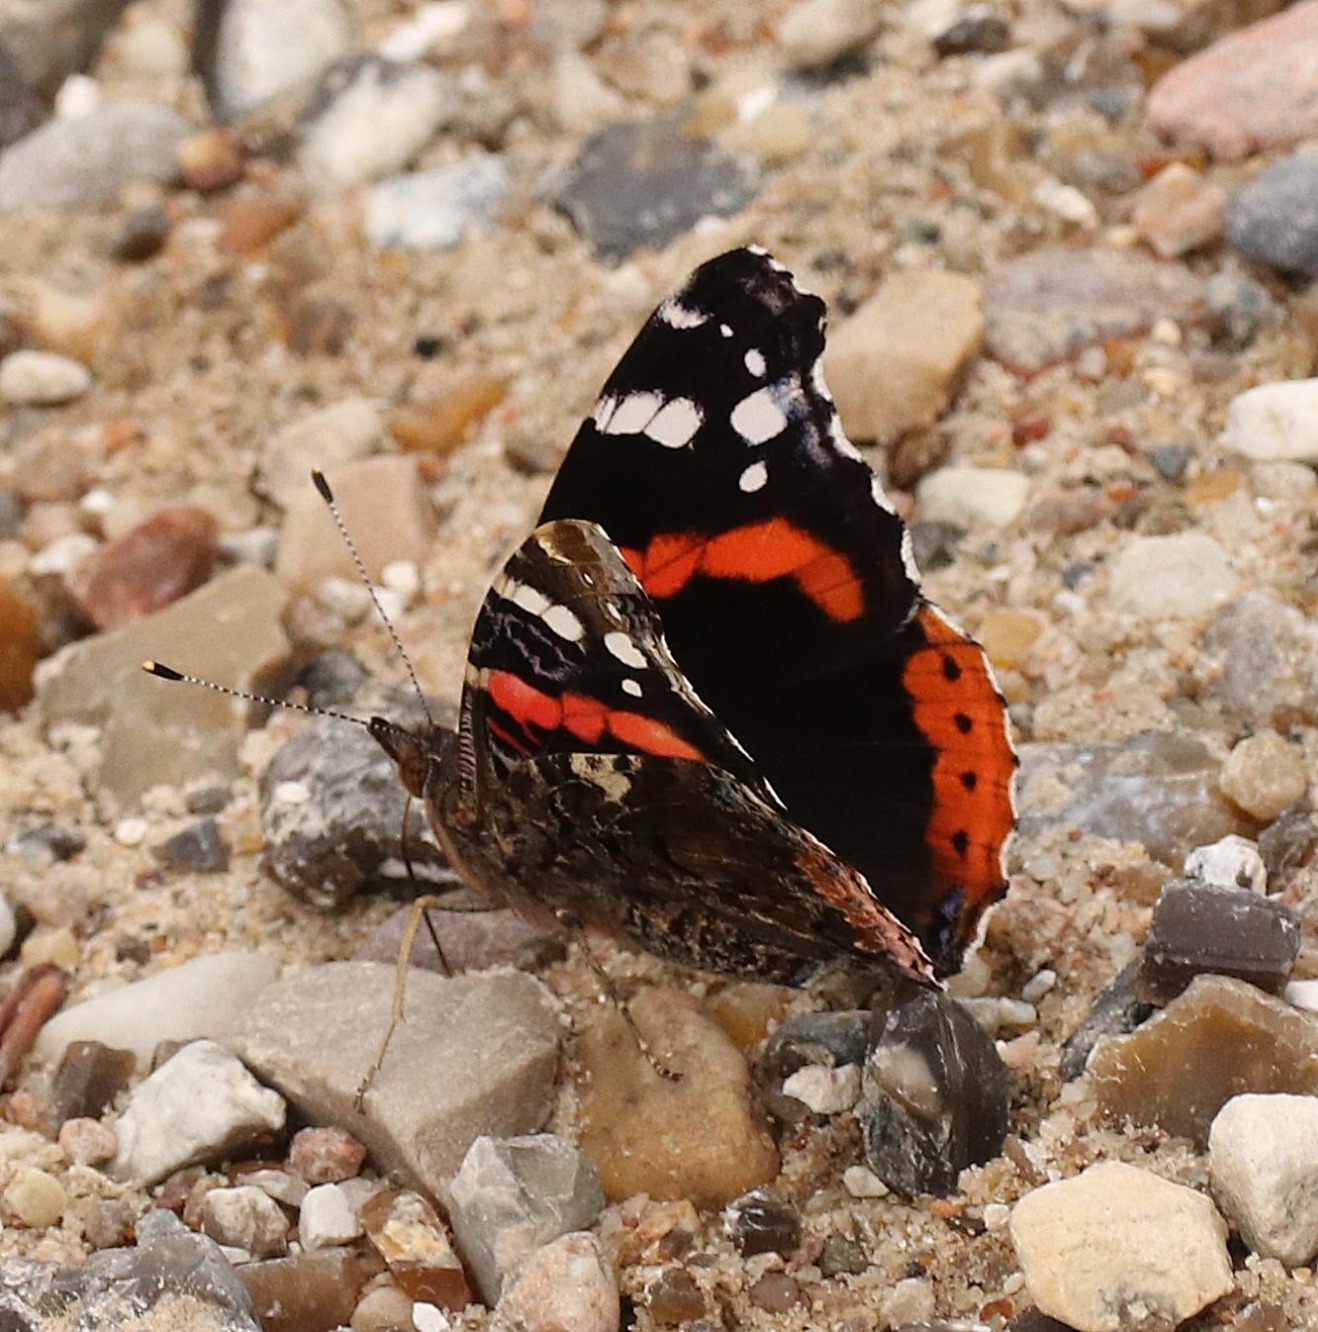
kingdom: Animalia
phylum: Arthropoda
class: Insecta
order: Lepidoptera
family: Nymphalidae
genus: Vanessa
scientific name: Vanessa atalanta
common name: Admiral
